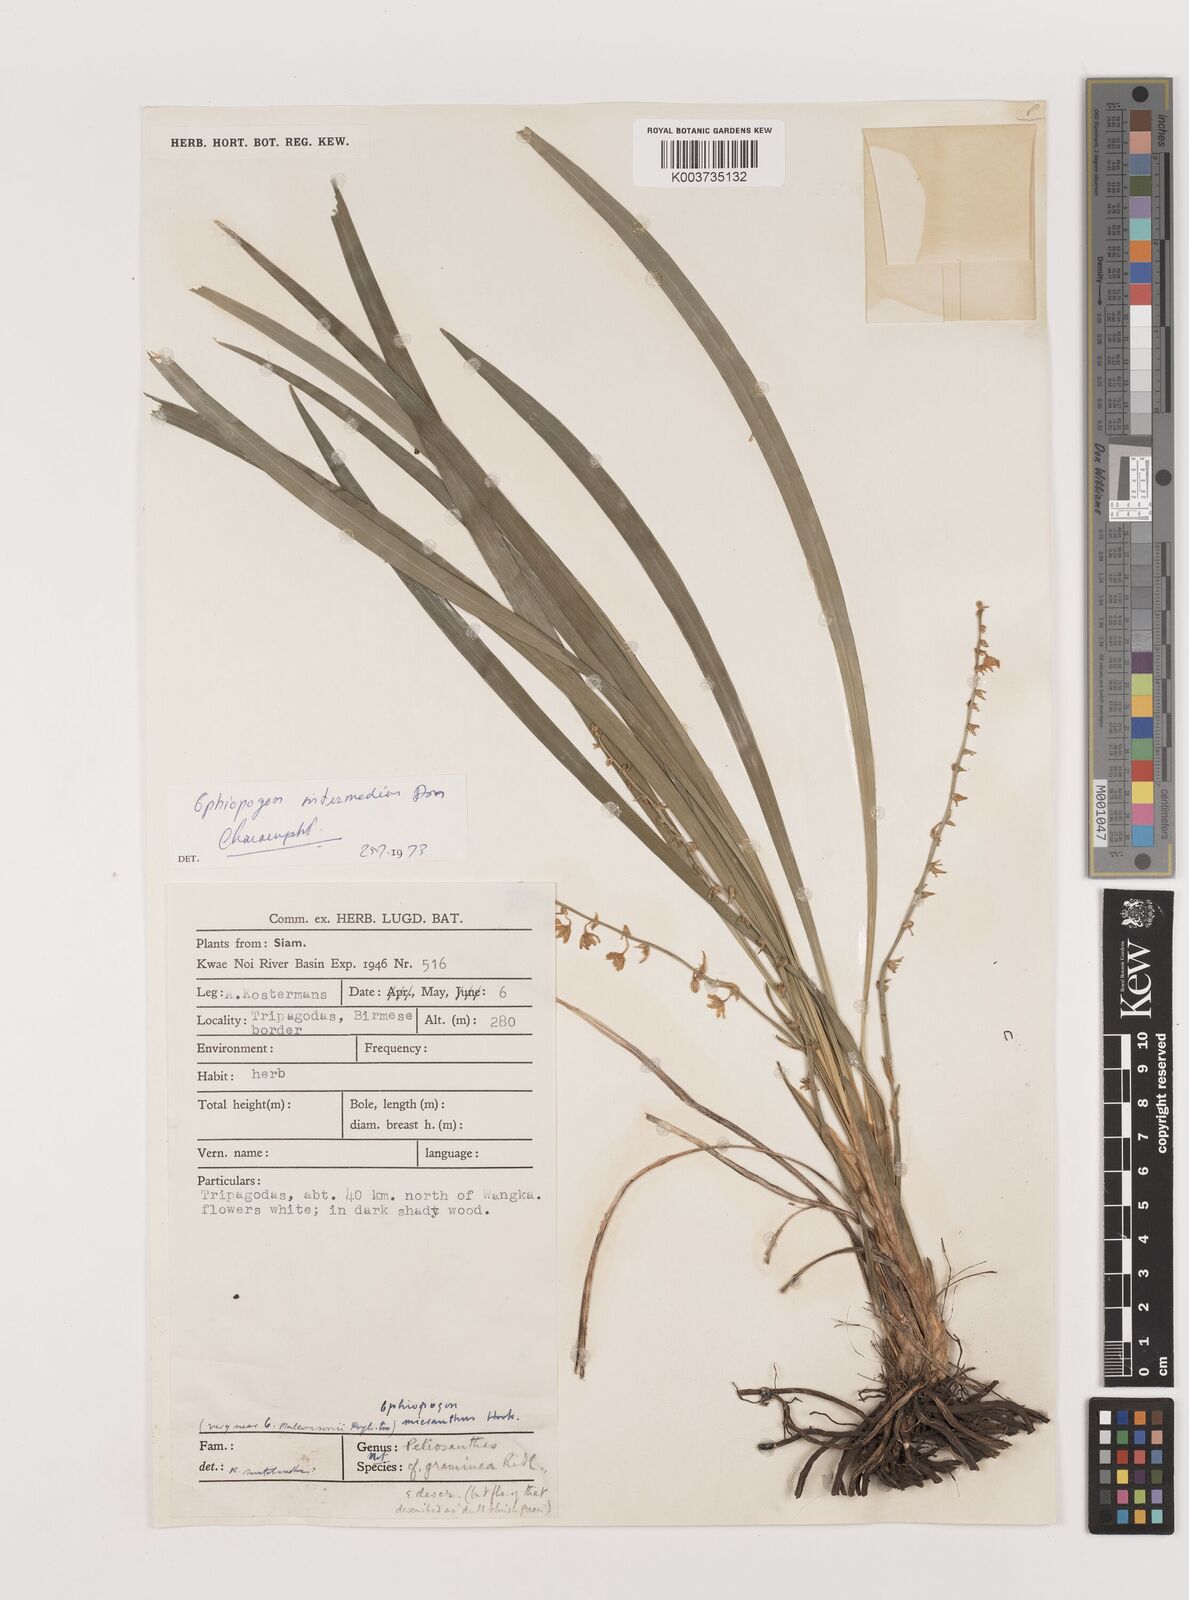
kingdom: Plantae
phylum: Tracheophyta
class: Liliopsida
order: Asparagales
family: Asparagaceae
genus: Ophiopogon
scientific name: Ophiopogon japonicus
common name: Dwarf lilyturf
